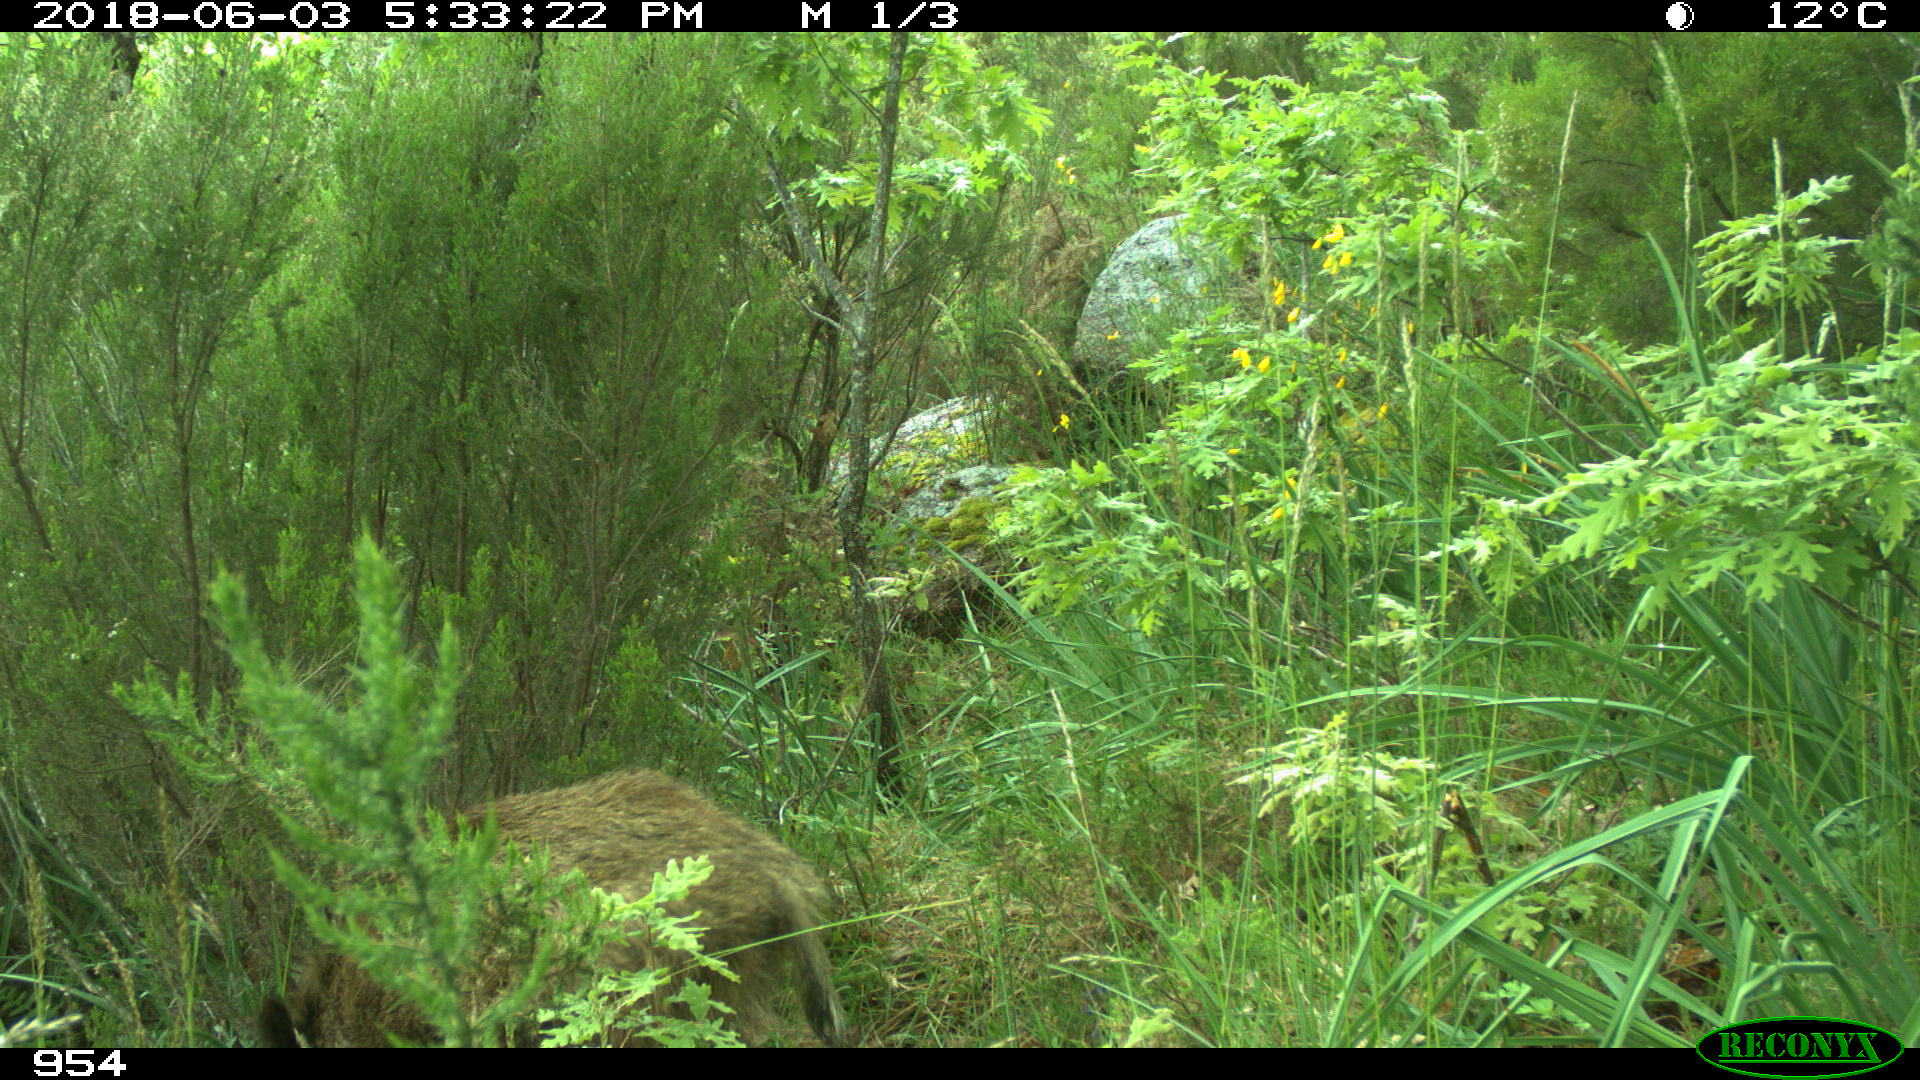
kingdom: Animalia
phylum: Chordata
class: Mammalia
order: Artiodactyla
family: Suidae
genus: Sus
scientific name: Sus scrofa
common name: Wild boar
